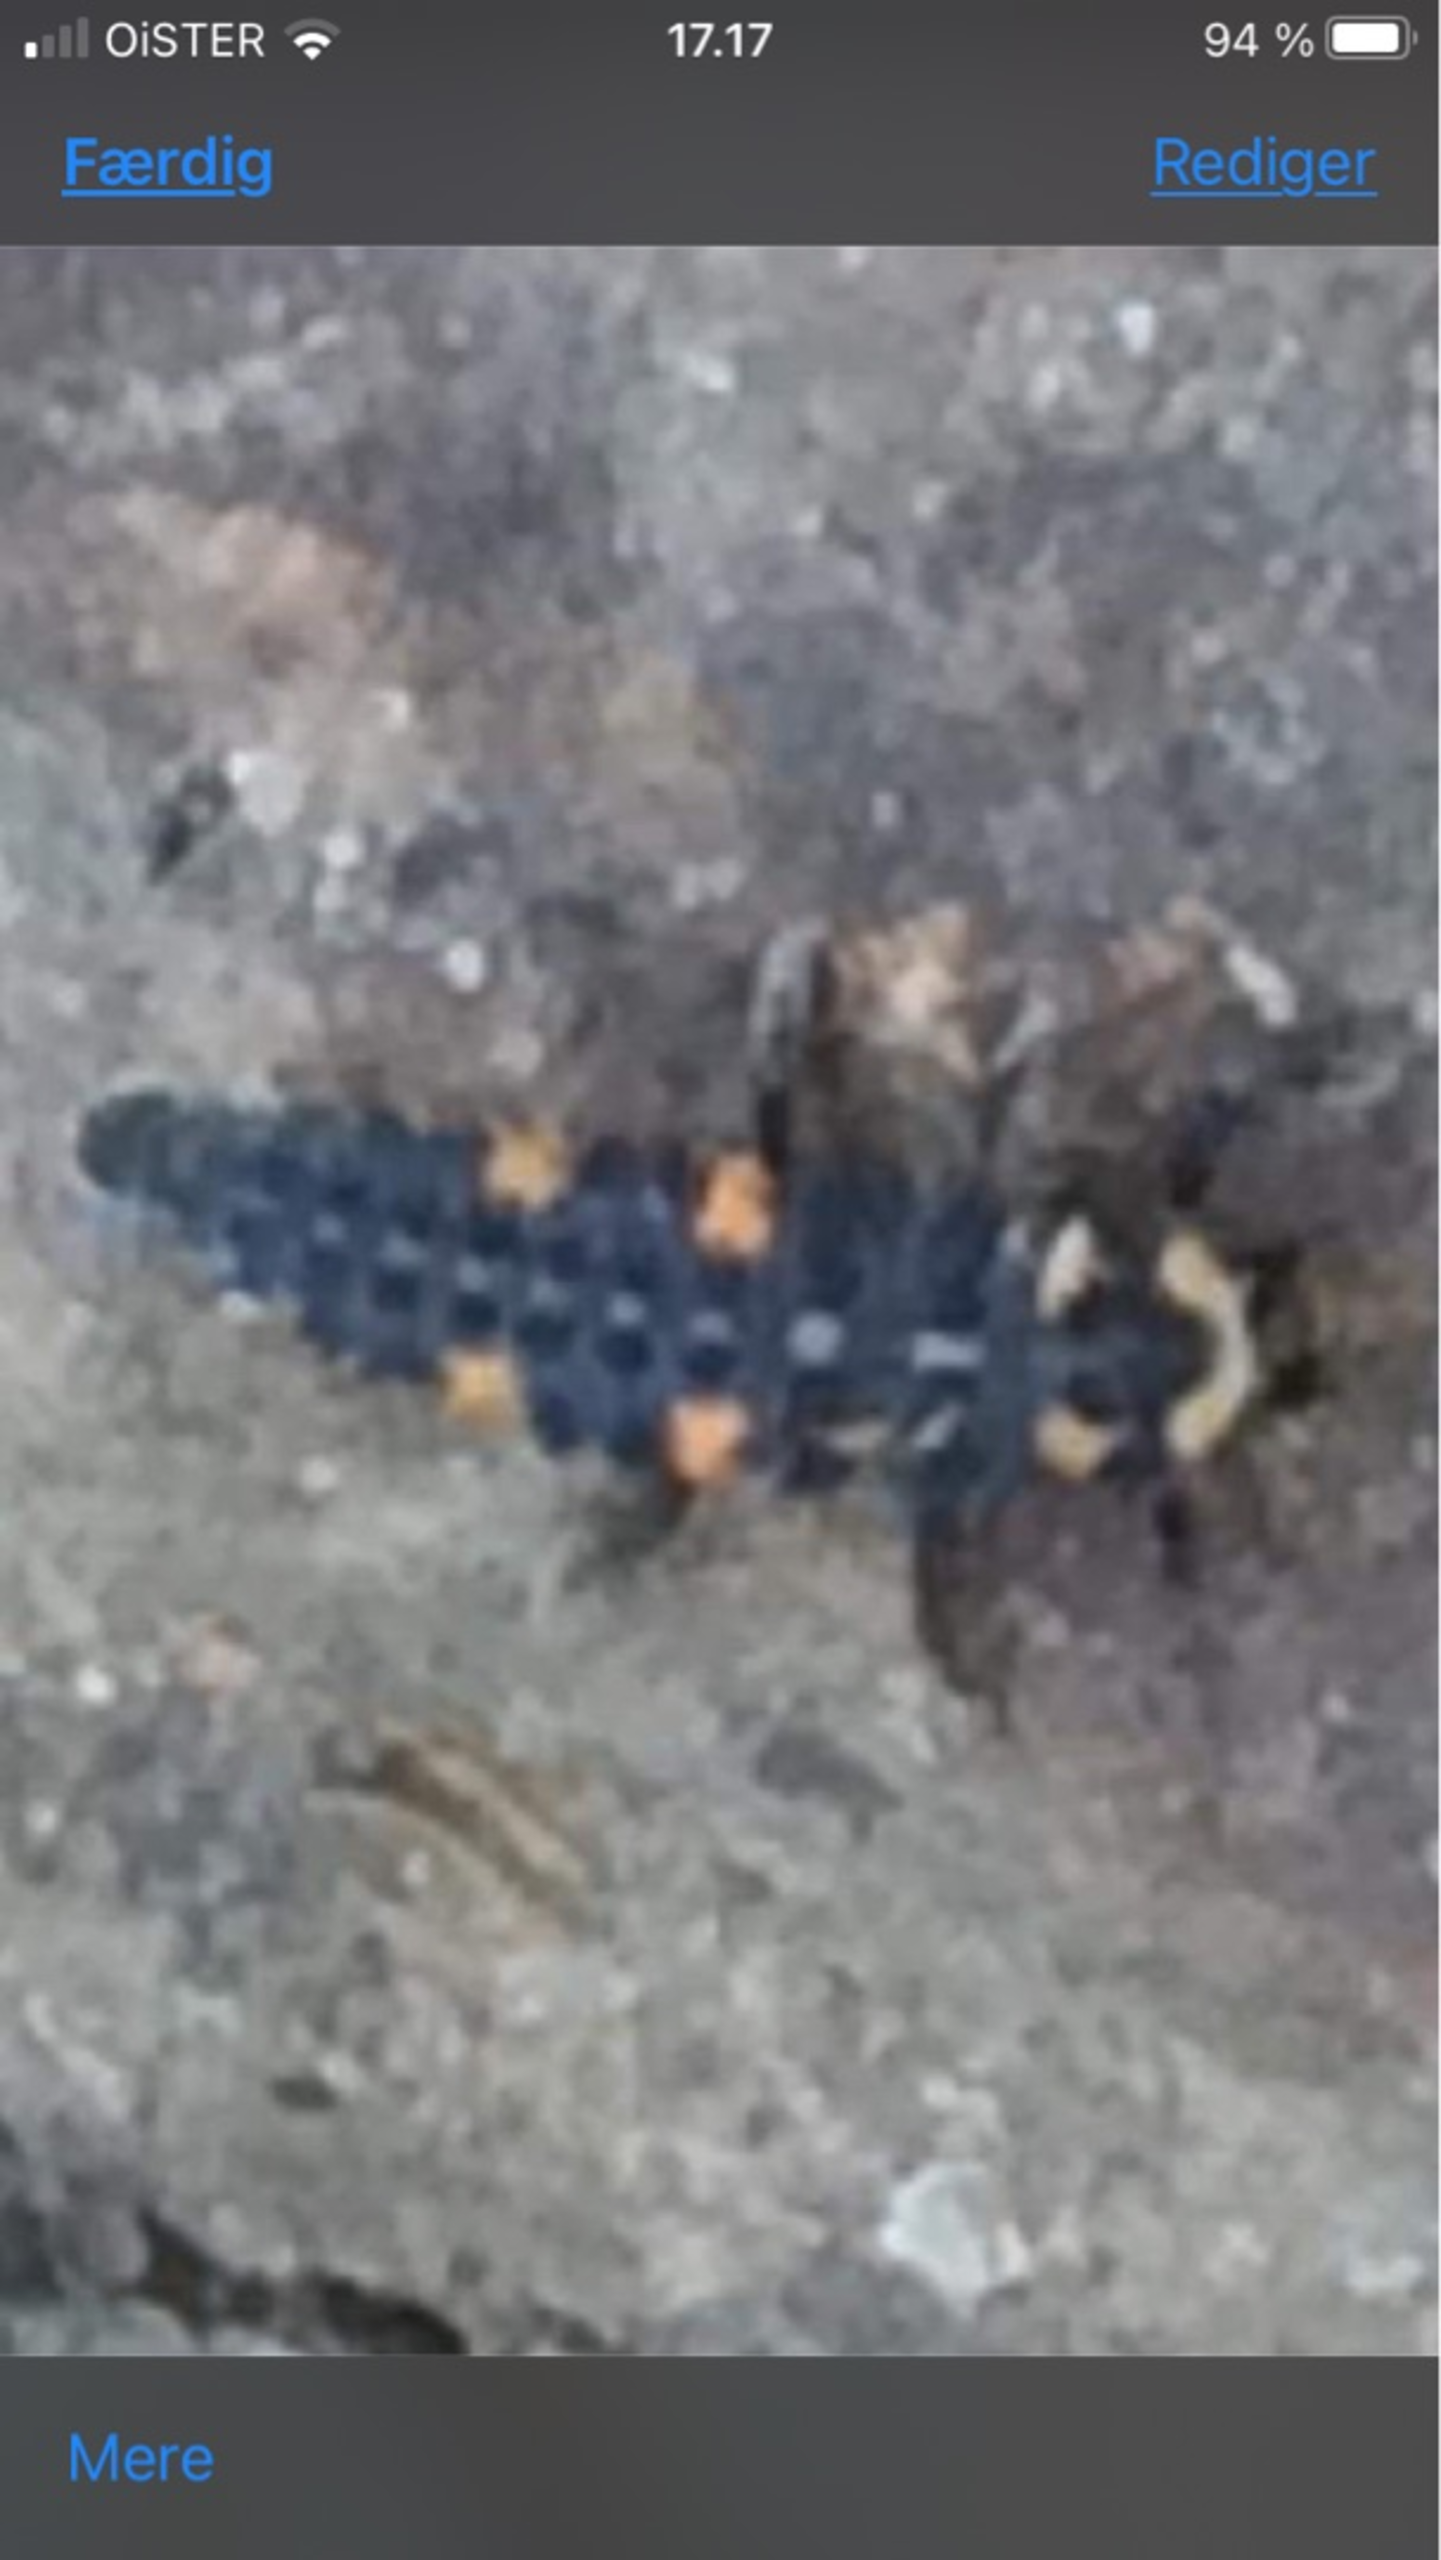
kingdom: Animalia
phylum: Arthropoda
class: Insecta
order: Coleoptera
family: Coccinellidae
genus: Coccinella
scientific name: Coccinella septempunctata
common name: Syvplettet mariehøne
